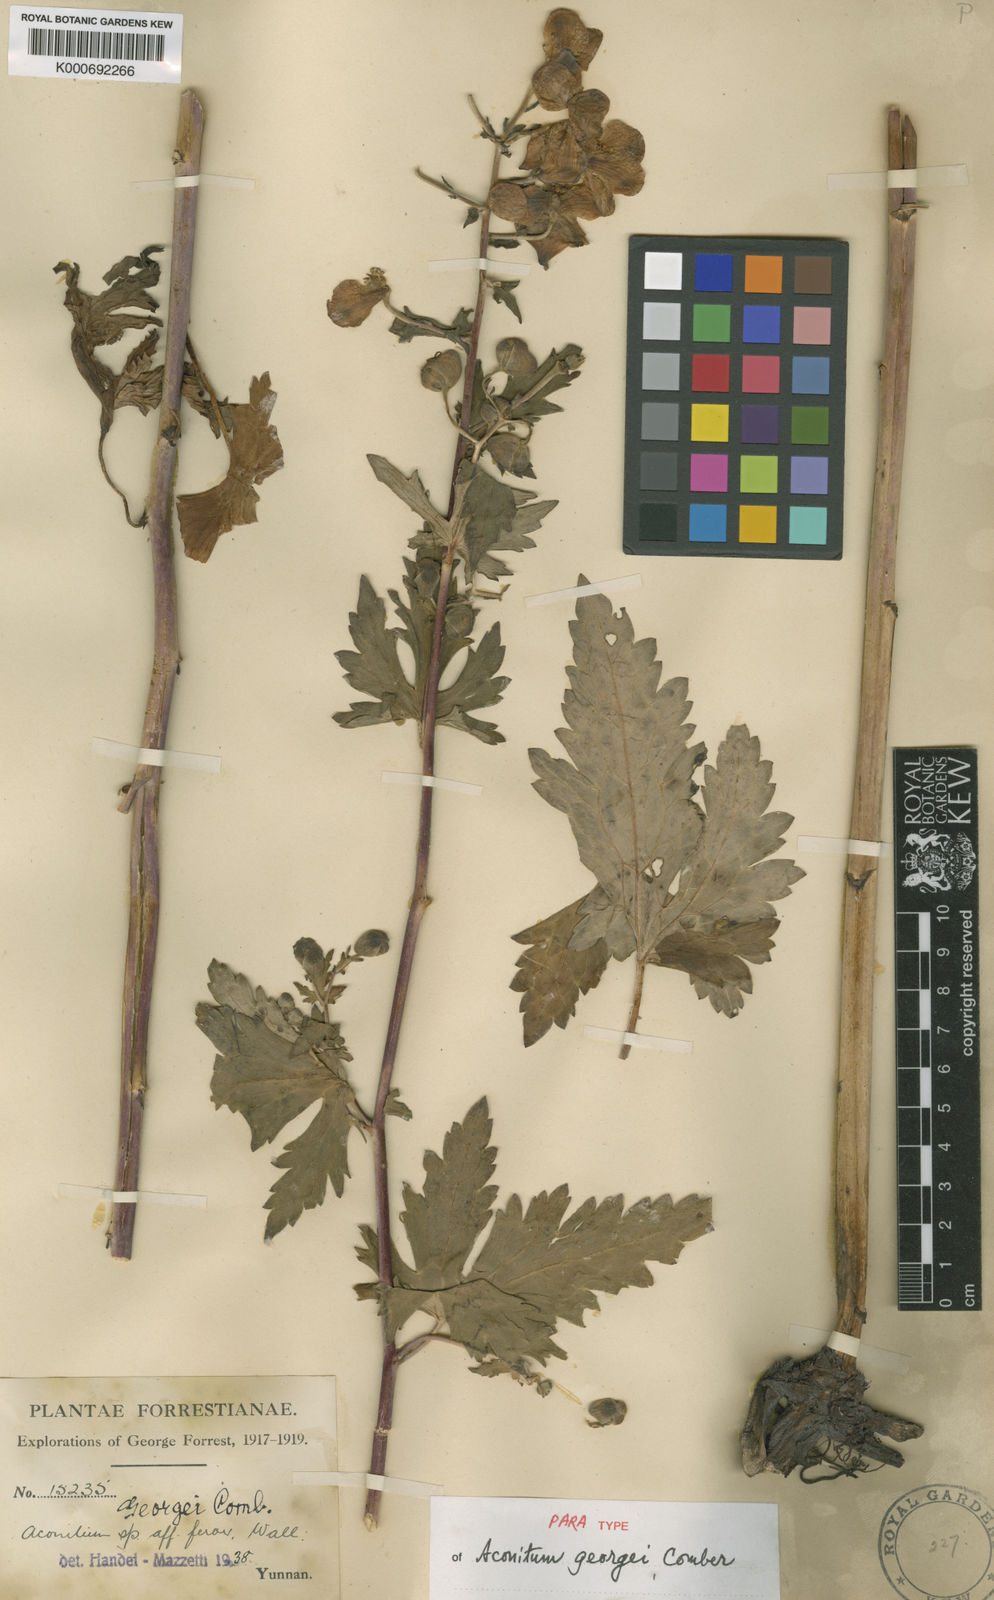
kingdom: Plantae
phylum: Tracheophyta
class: Magnoliopsida
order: Ranunculales
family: Ranunculaceae
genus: Aconitum
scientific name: Aconitum georgei
